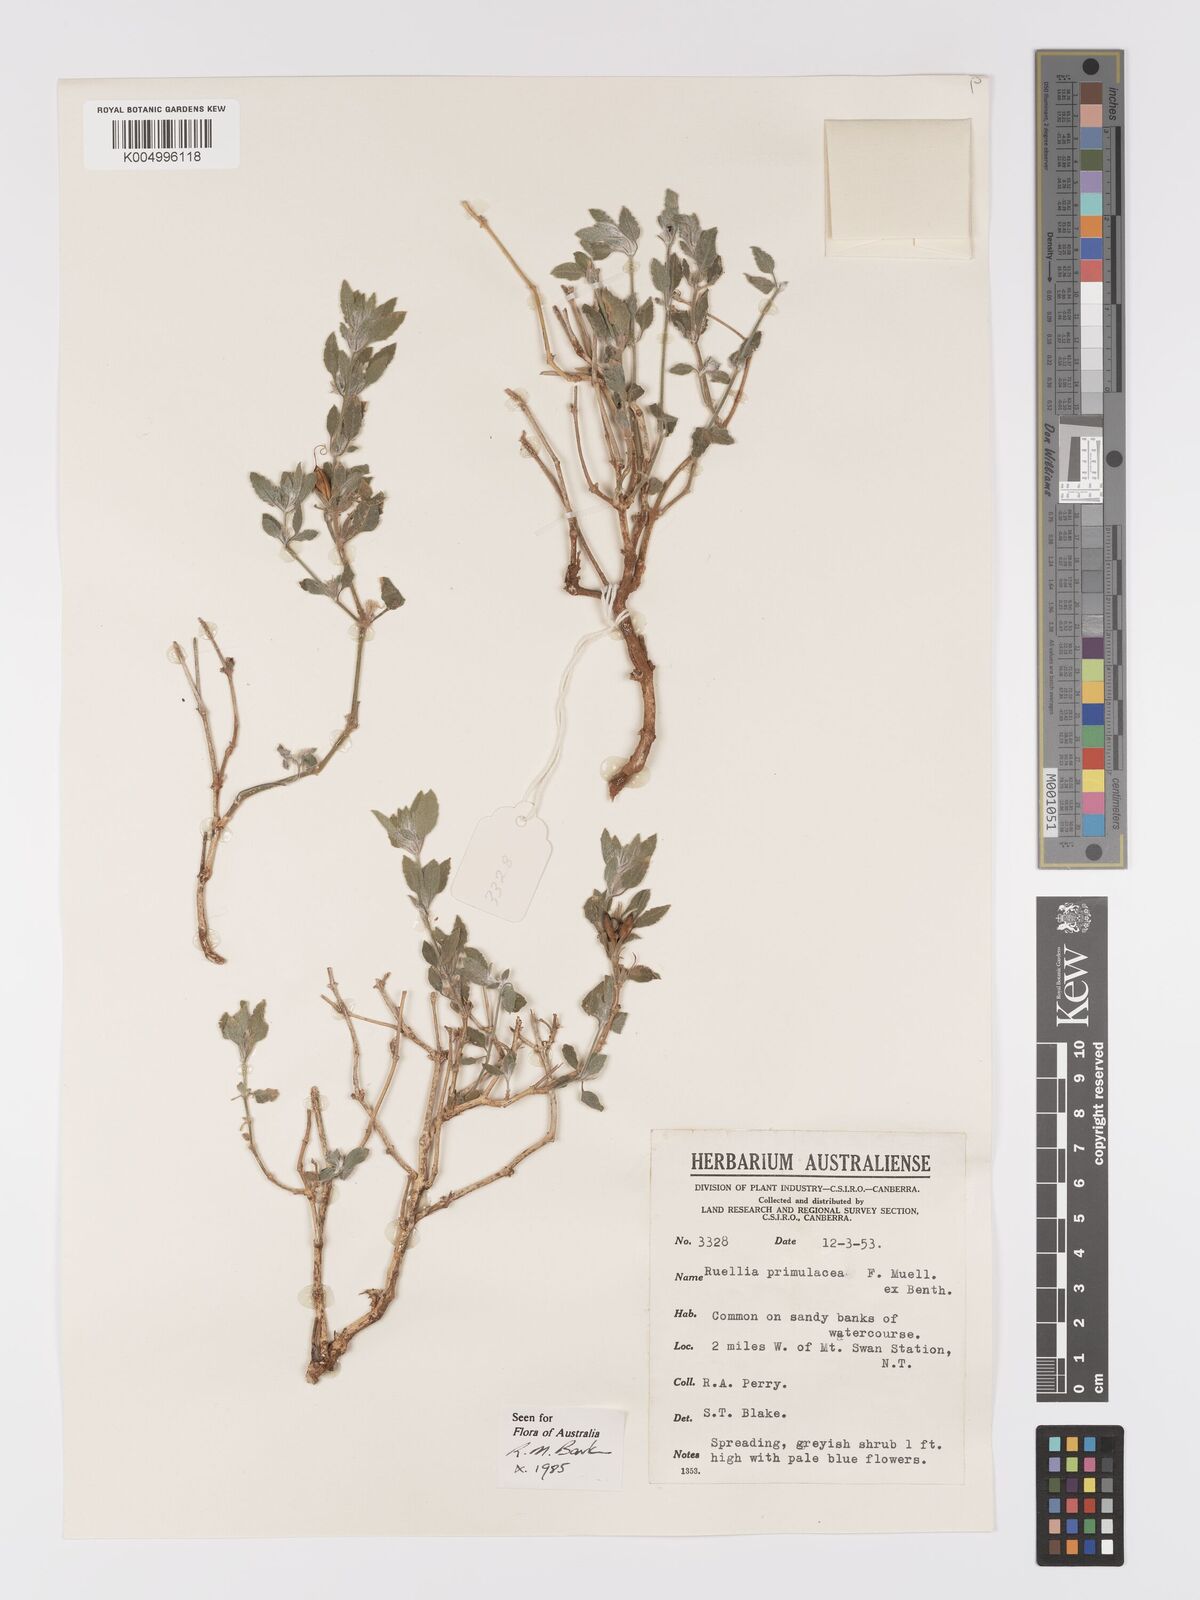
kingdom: Plantae
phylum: Tracheophyta
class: Magnoliopsida
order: Lamiales
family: Acanthaceae
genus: Ruellia
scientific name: Ruellia primulacea
